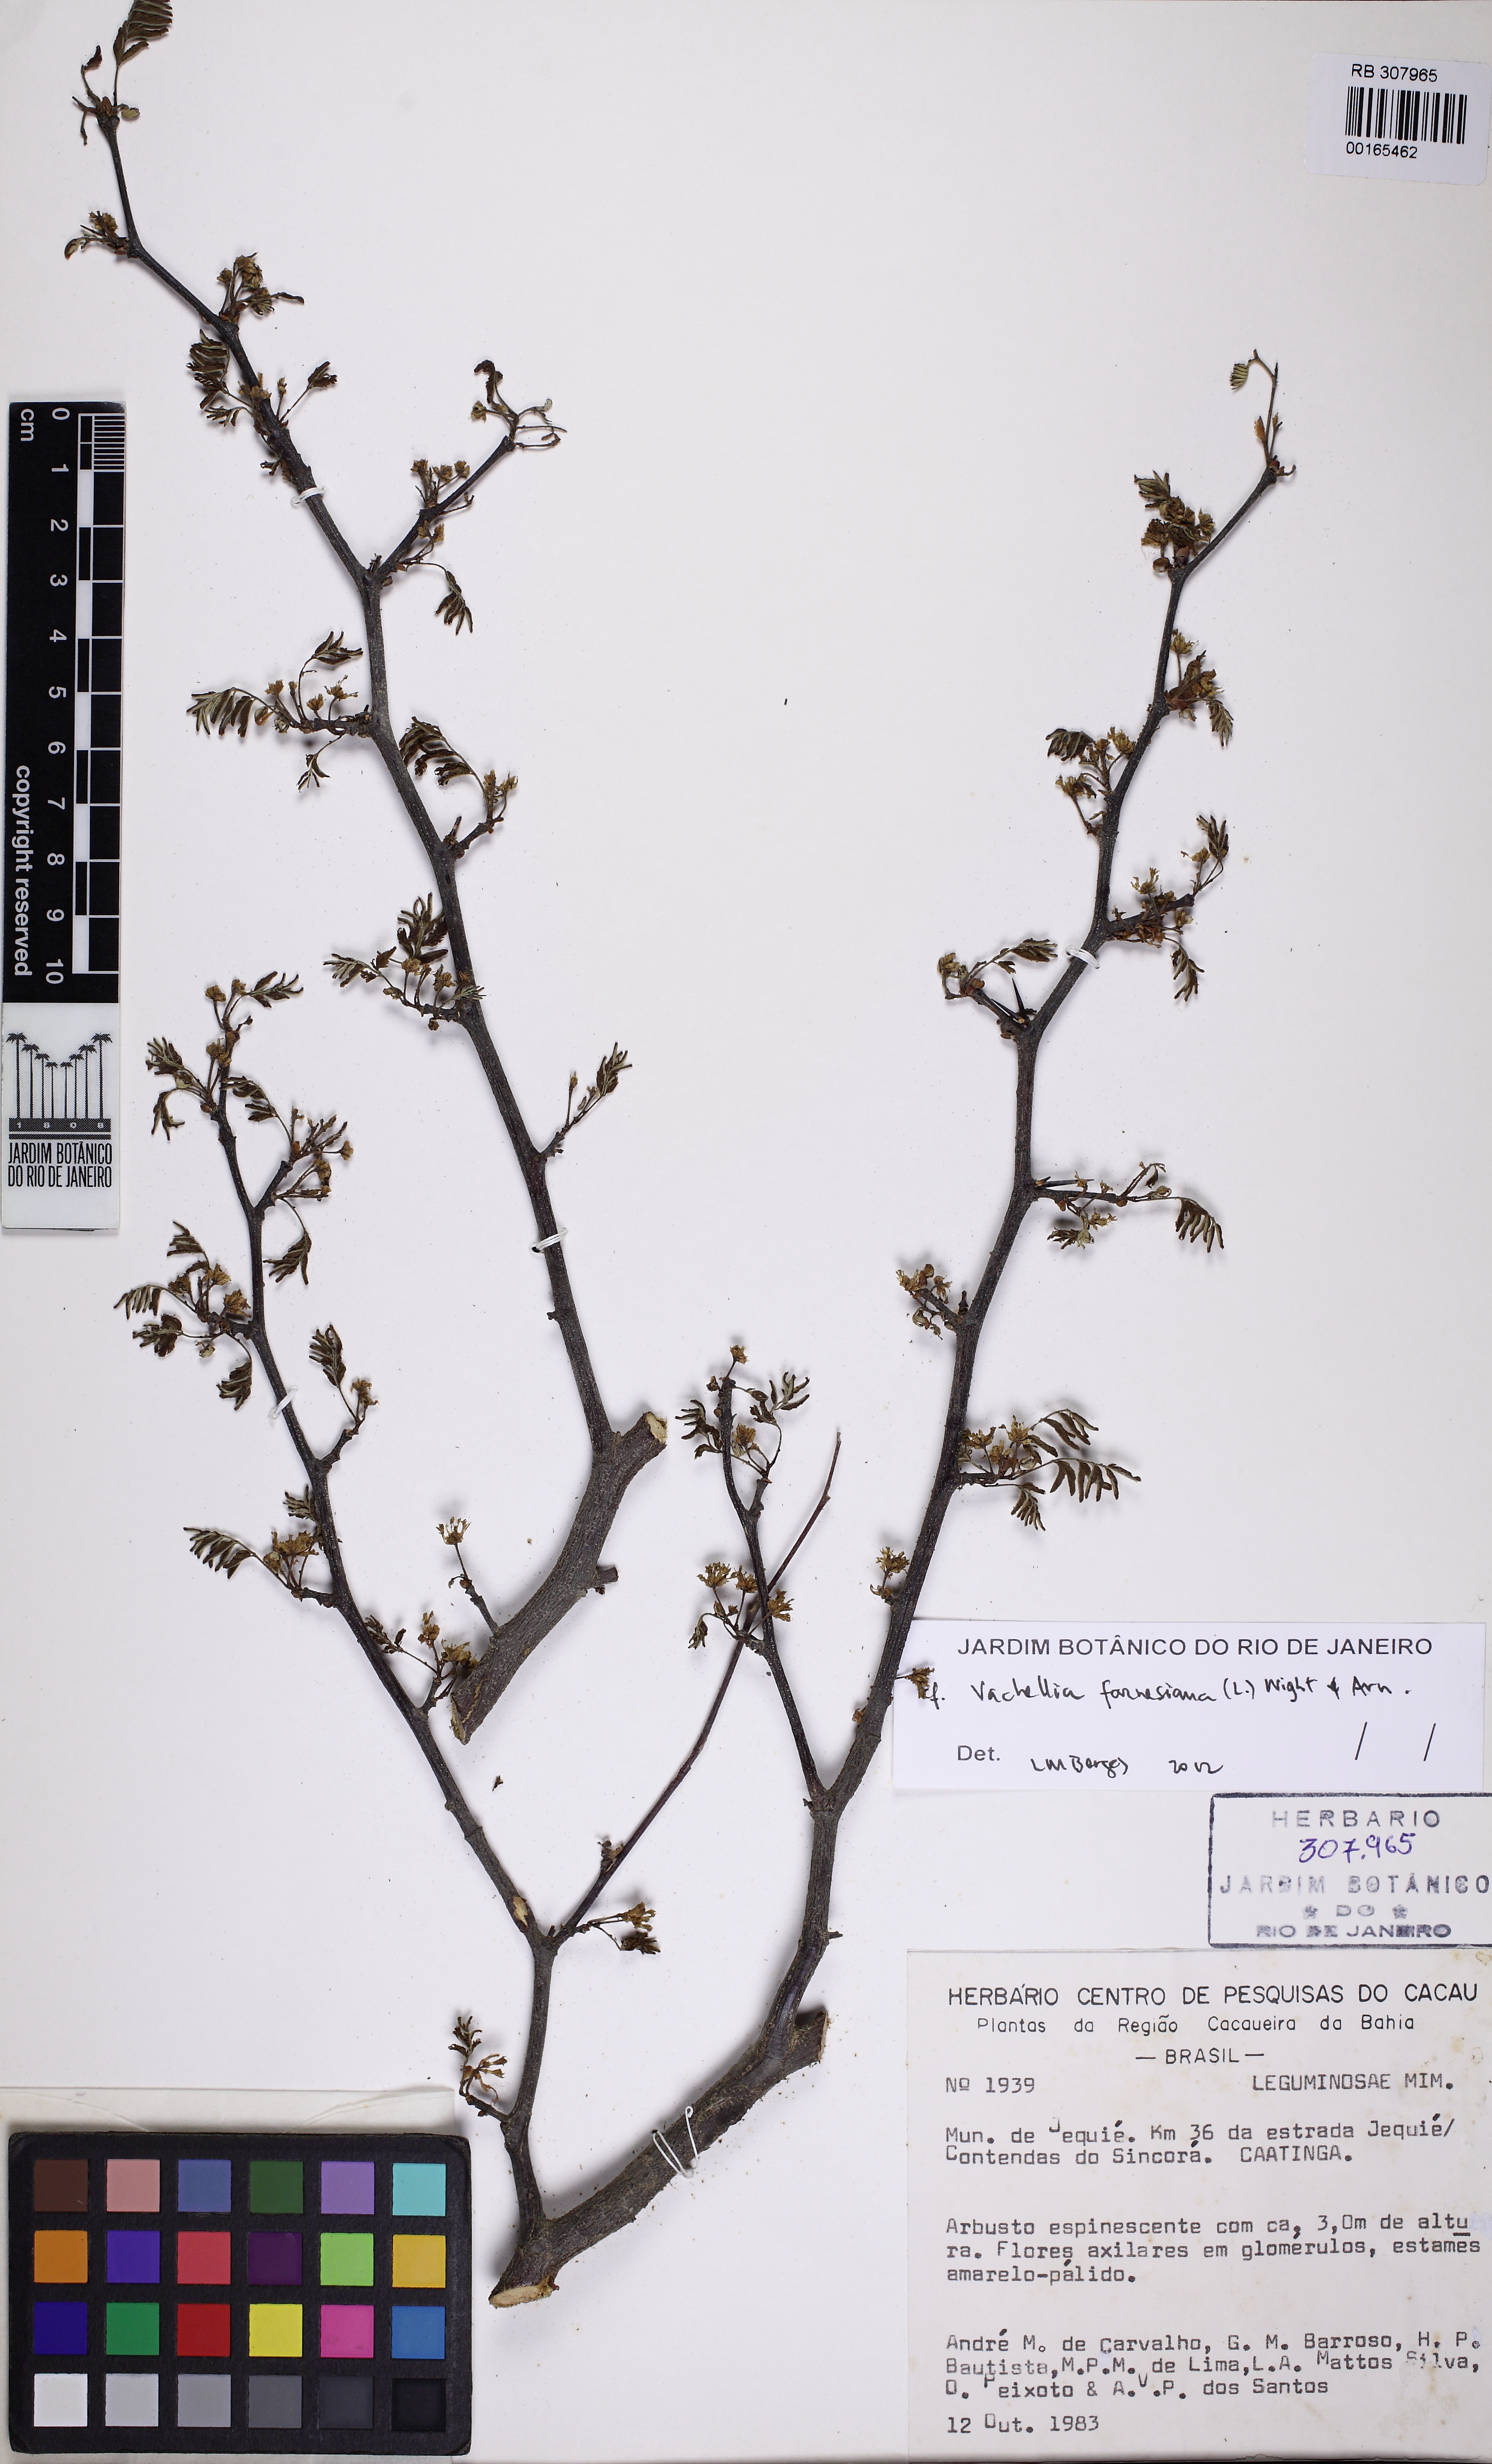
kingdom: Plantae
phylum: Tracheophyta
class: Magnoliopsida
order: Fabales
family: Fabaceae
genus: Vachellia
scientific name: Vachellia farnesiana
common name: Sweet acacia
